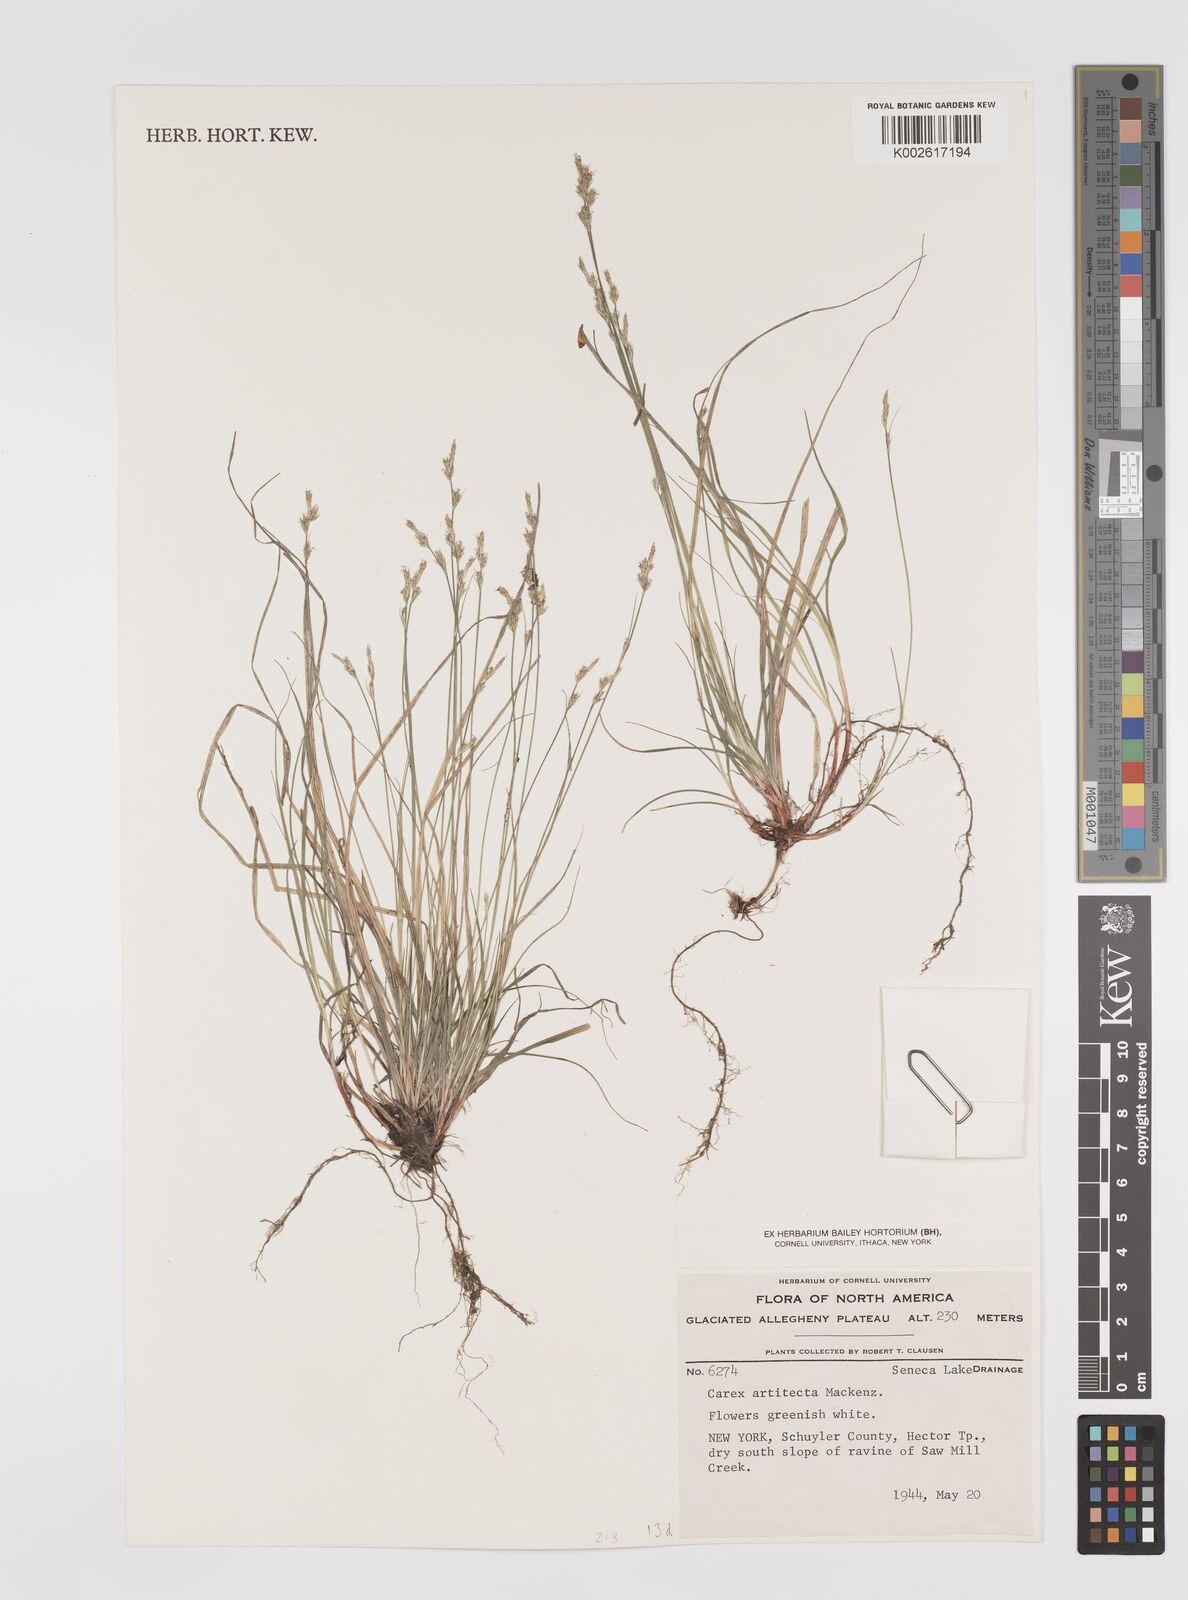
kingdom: Plantae
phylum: Tracheophyta
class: Liliopsida
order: Poales
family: Cyperaceae
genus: Carex
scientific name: Carex albicans
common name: Bellow-beaked sedge
